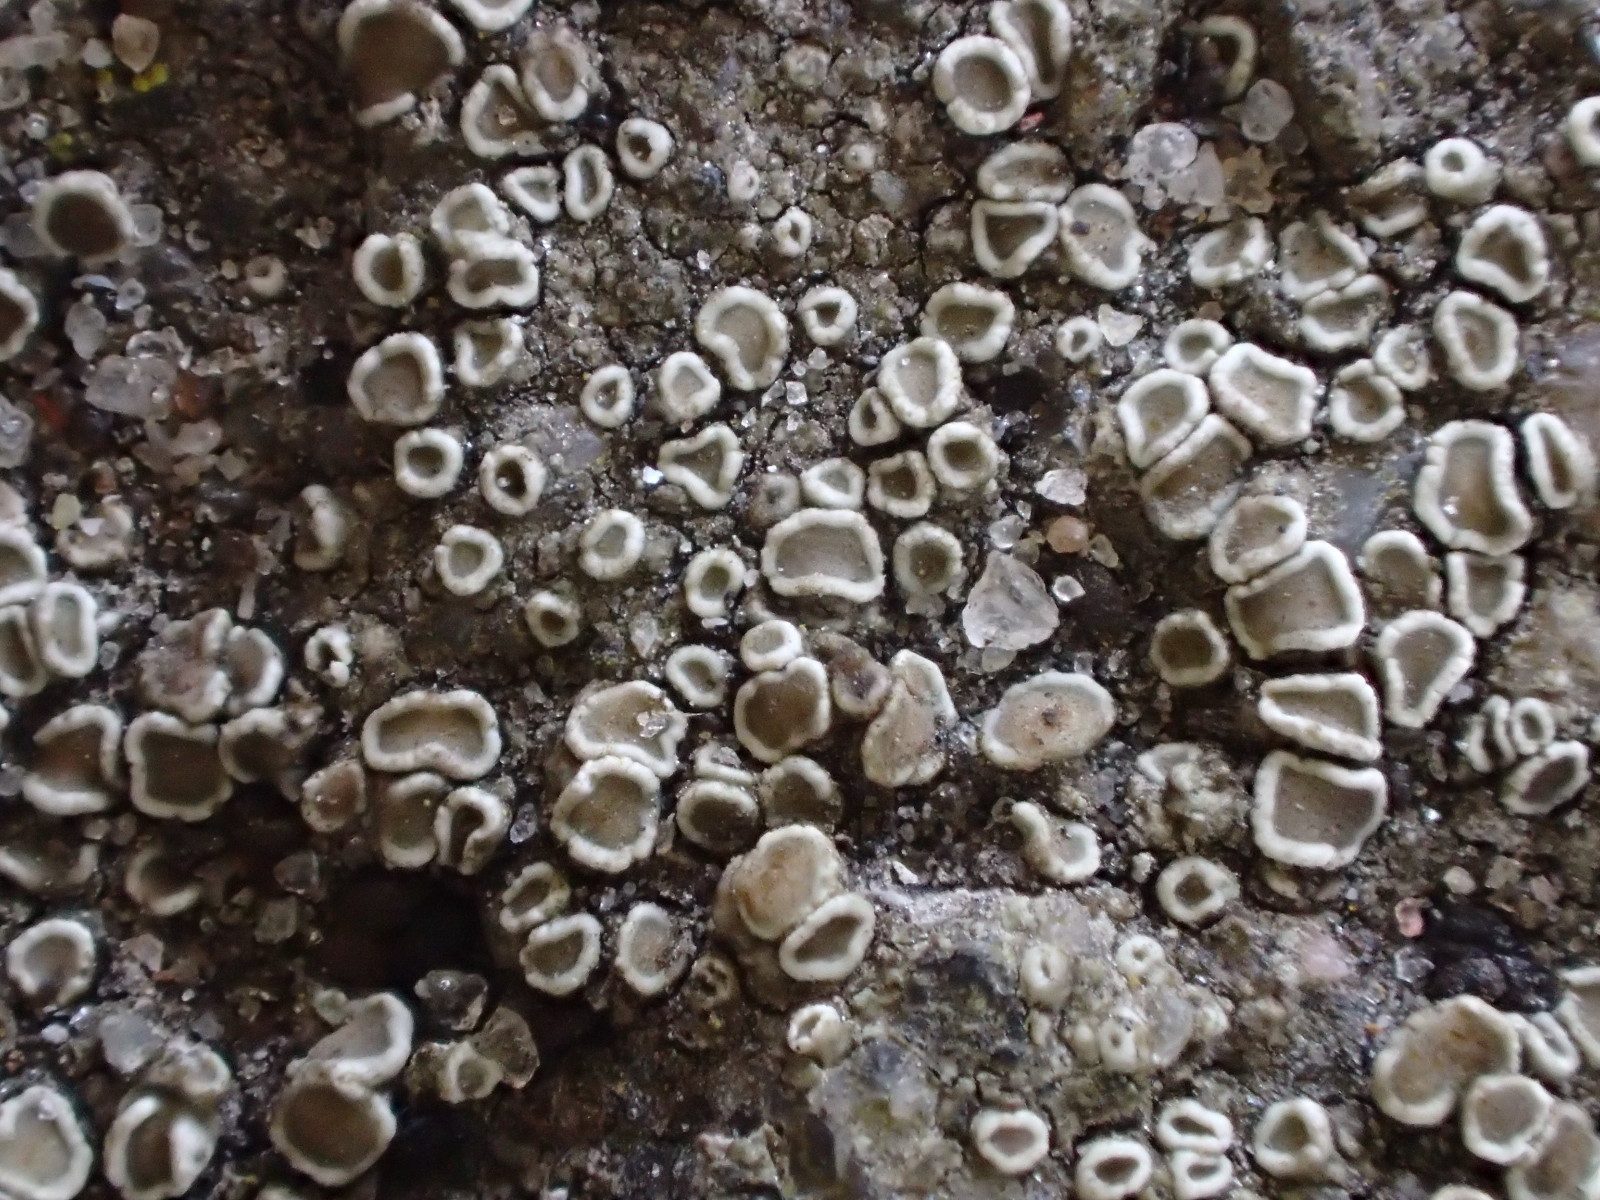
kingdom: Fungi
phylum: Ascomycota
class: Lecanoromycetes
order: Lecanorales
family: Lecanoraceae
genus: Polyozosia
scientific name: Polyozosia dispersa
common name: spredt kantskivelav
